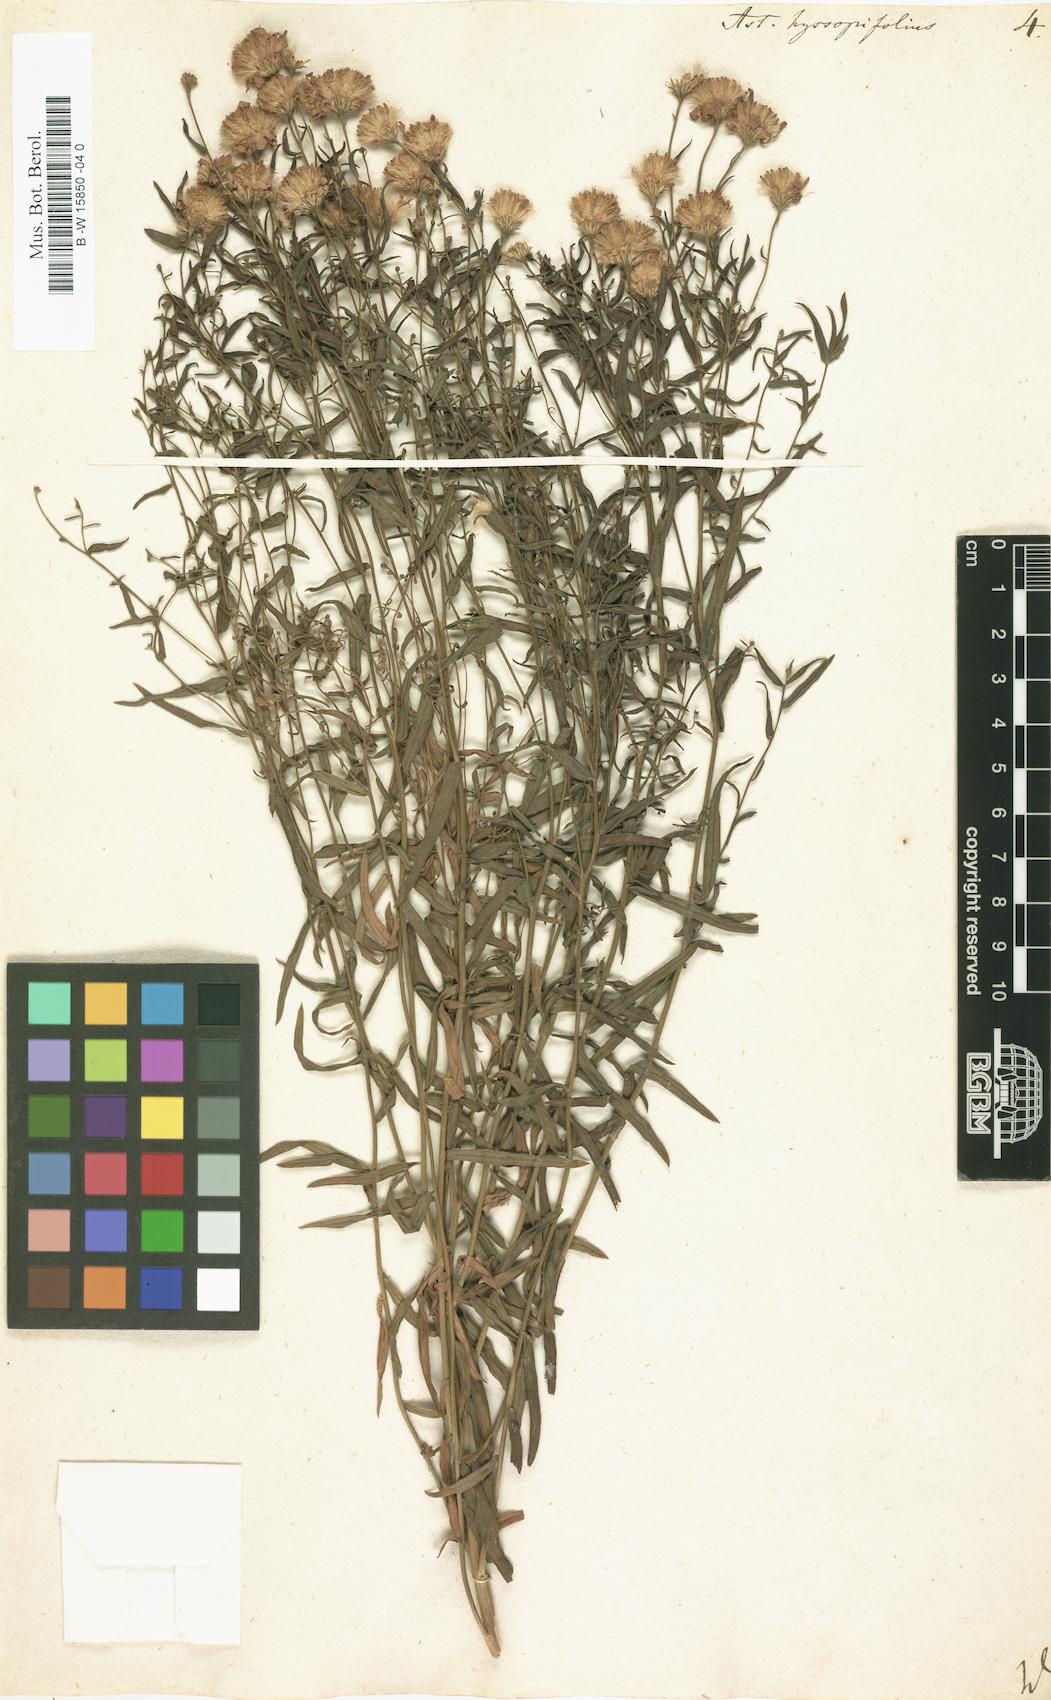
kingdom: Plantae
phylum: Tracheophyta
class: Magnoliopsida
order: Asterales
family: Asteraceae
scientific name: Asteraceae
